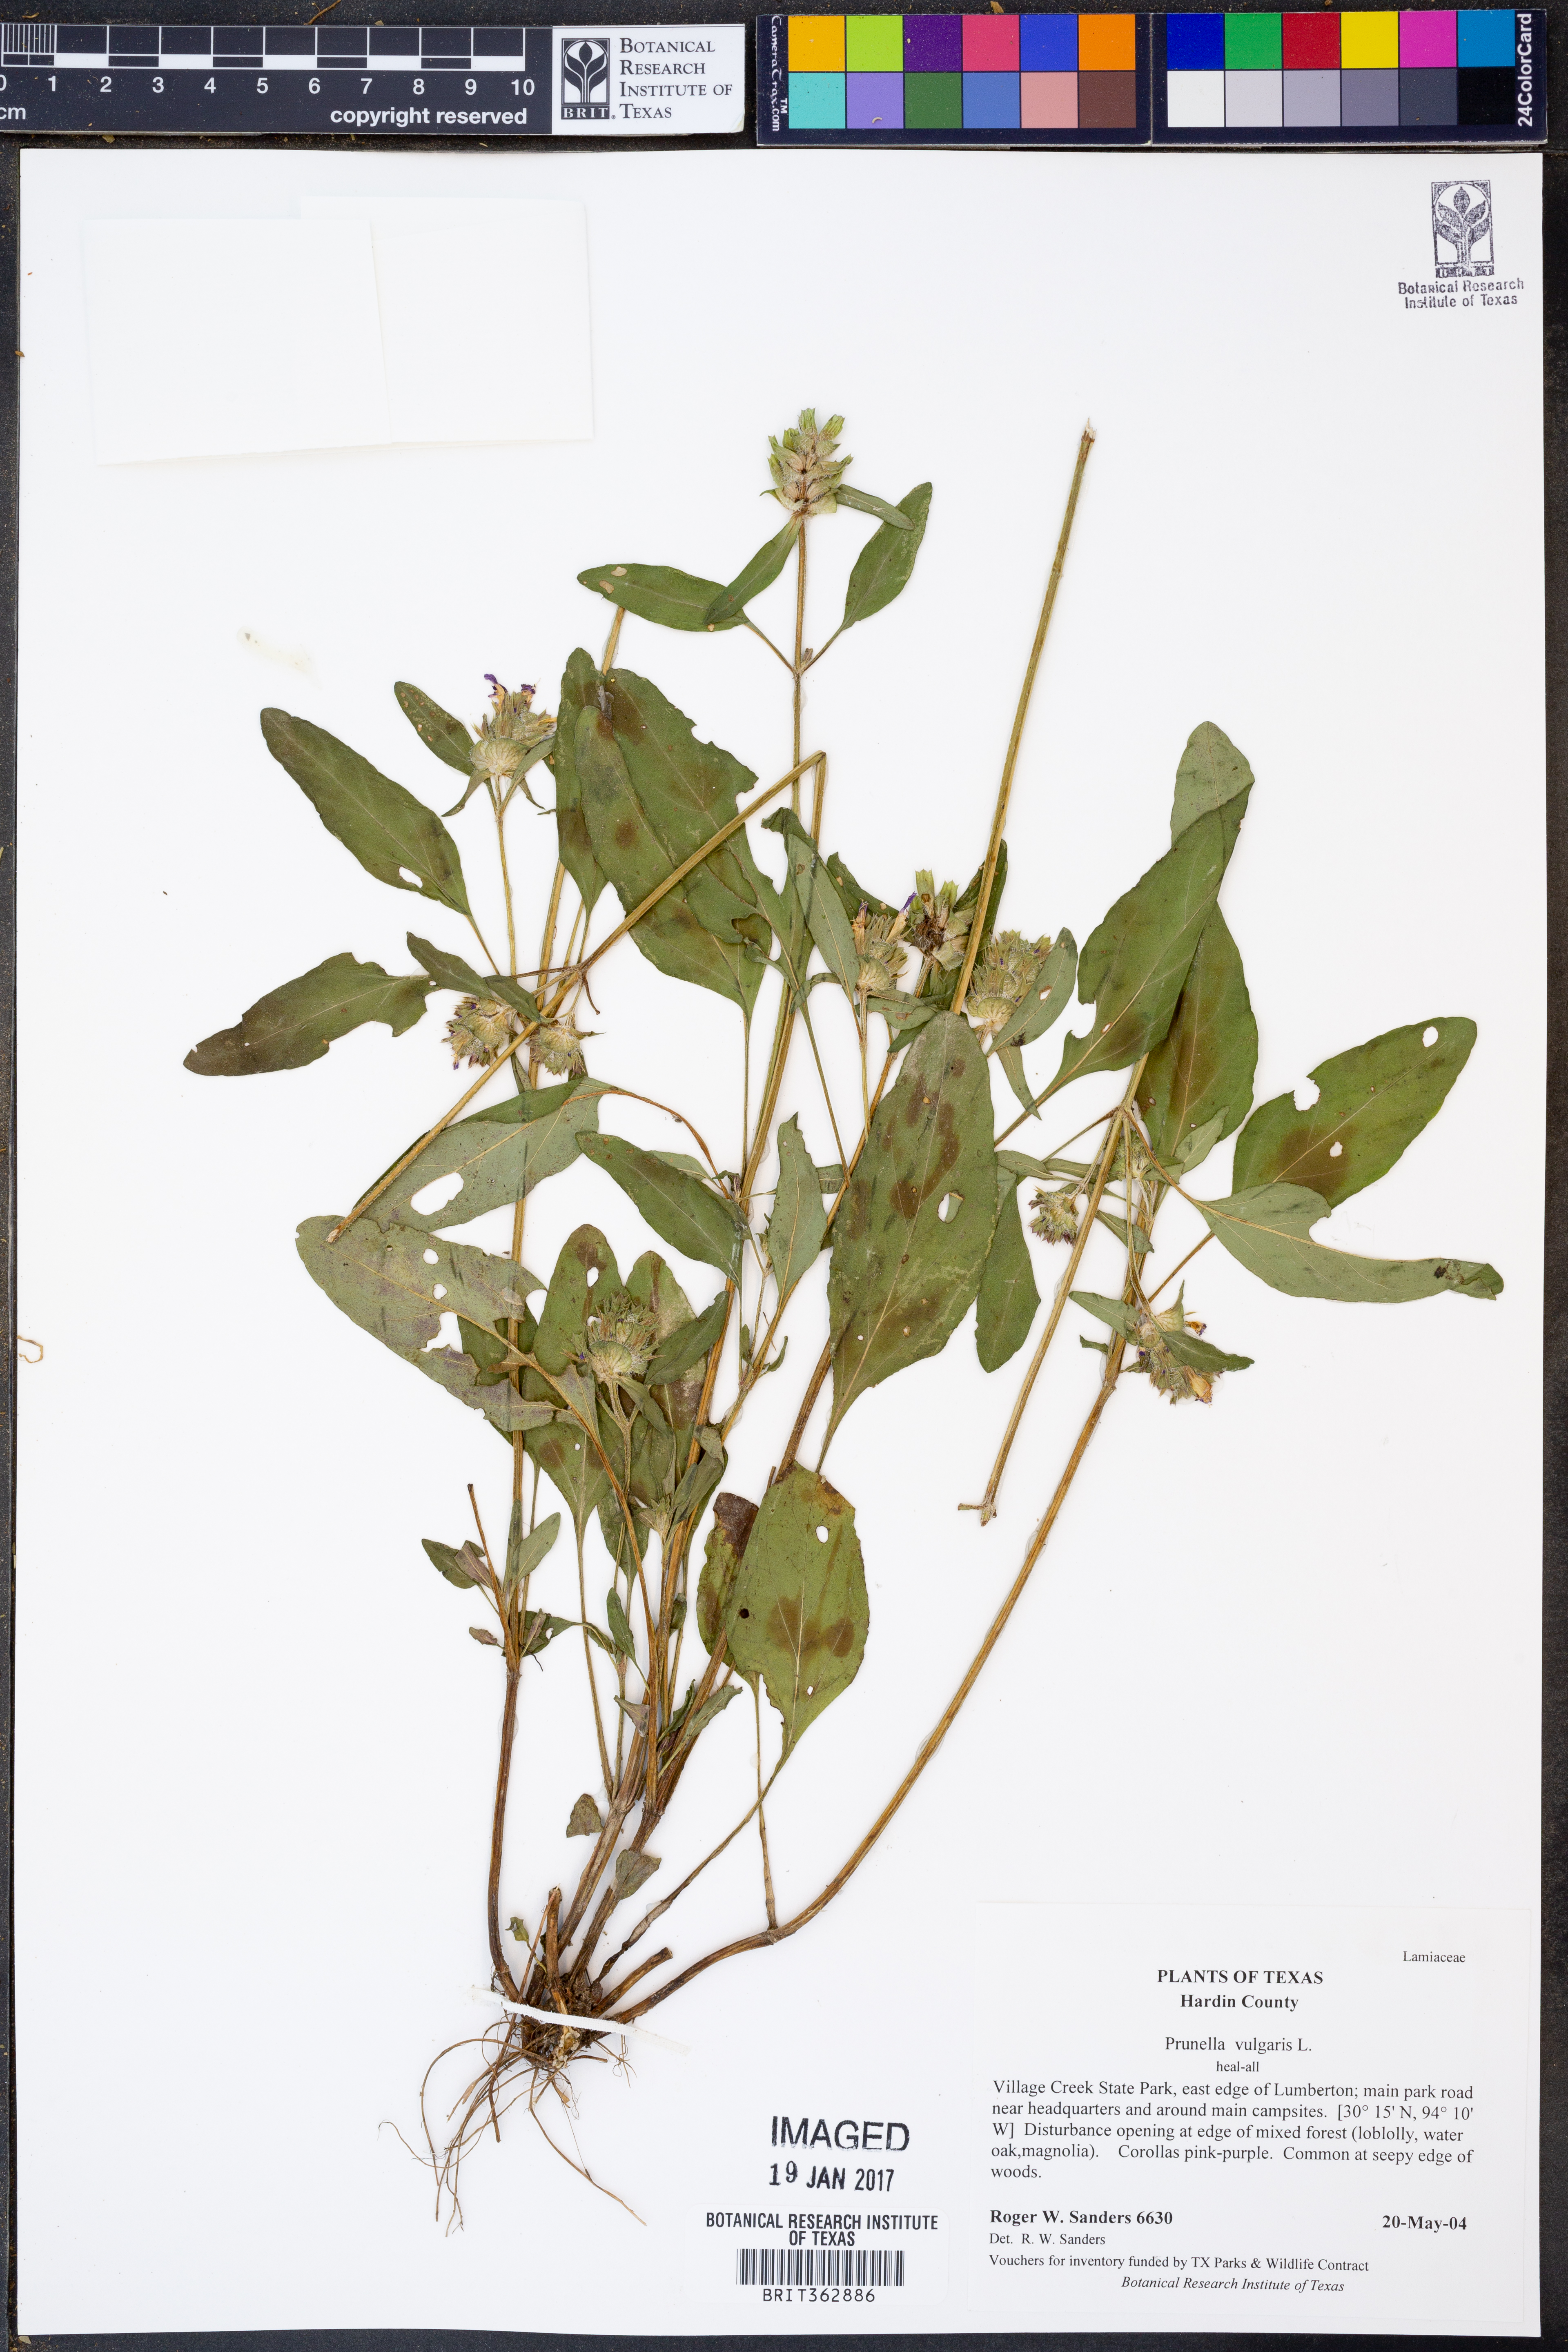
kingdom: Plantae
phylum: Tracheophyta
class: Magnoliopsida
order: Lamiales
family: Lamiaceae
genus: Prunella
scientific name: Prunella vulgaris
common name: Heal-all
